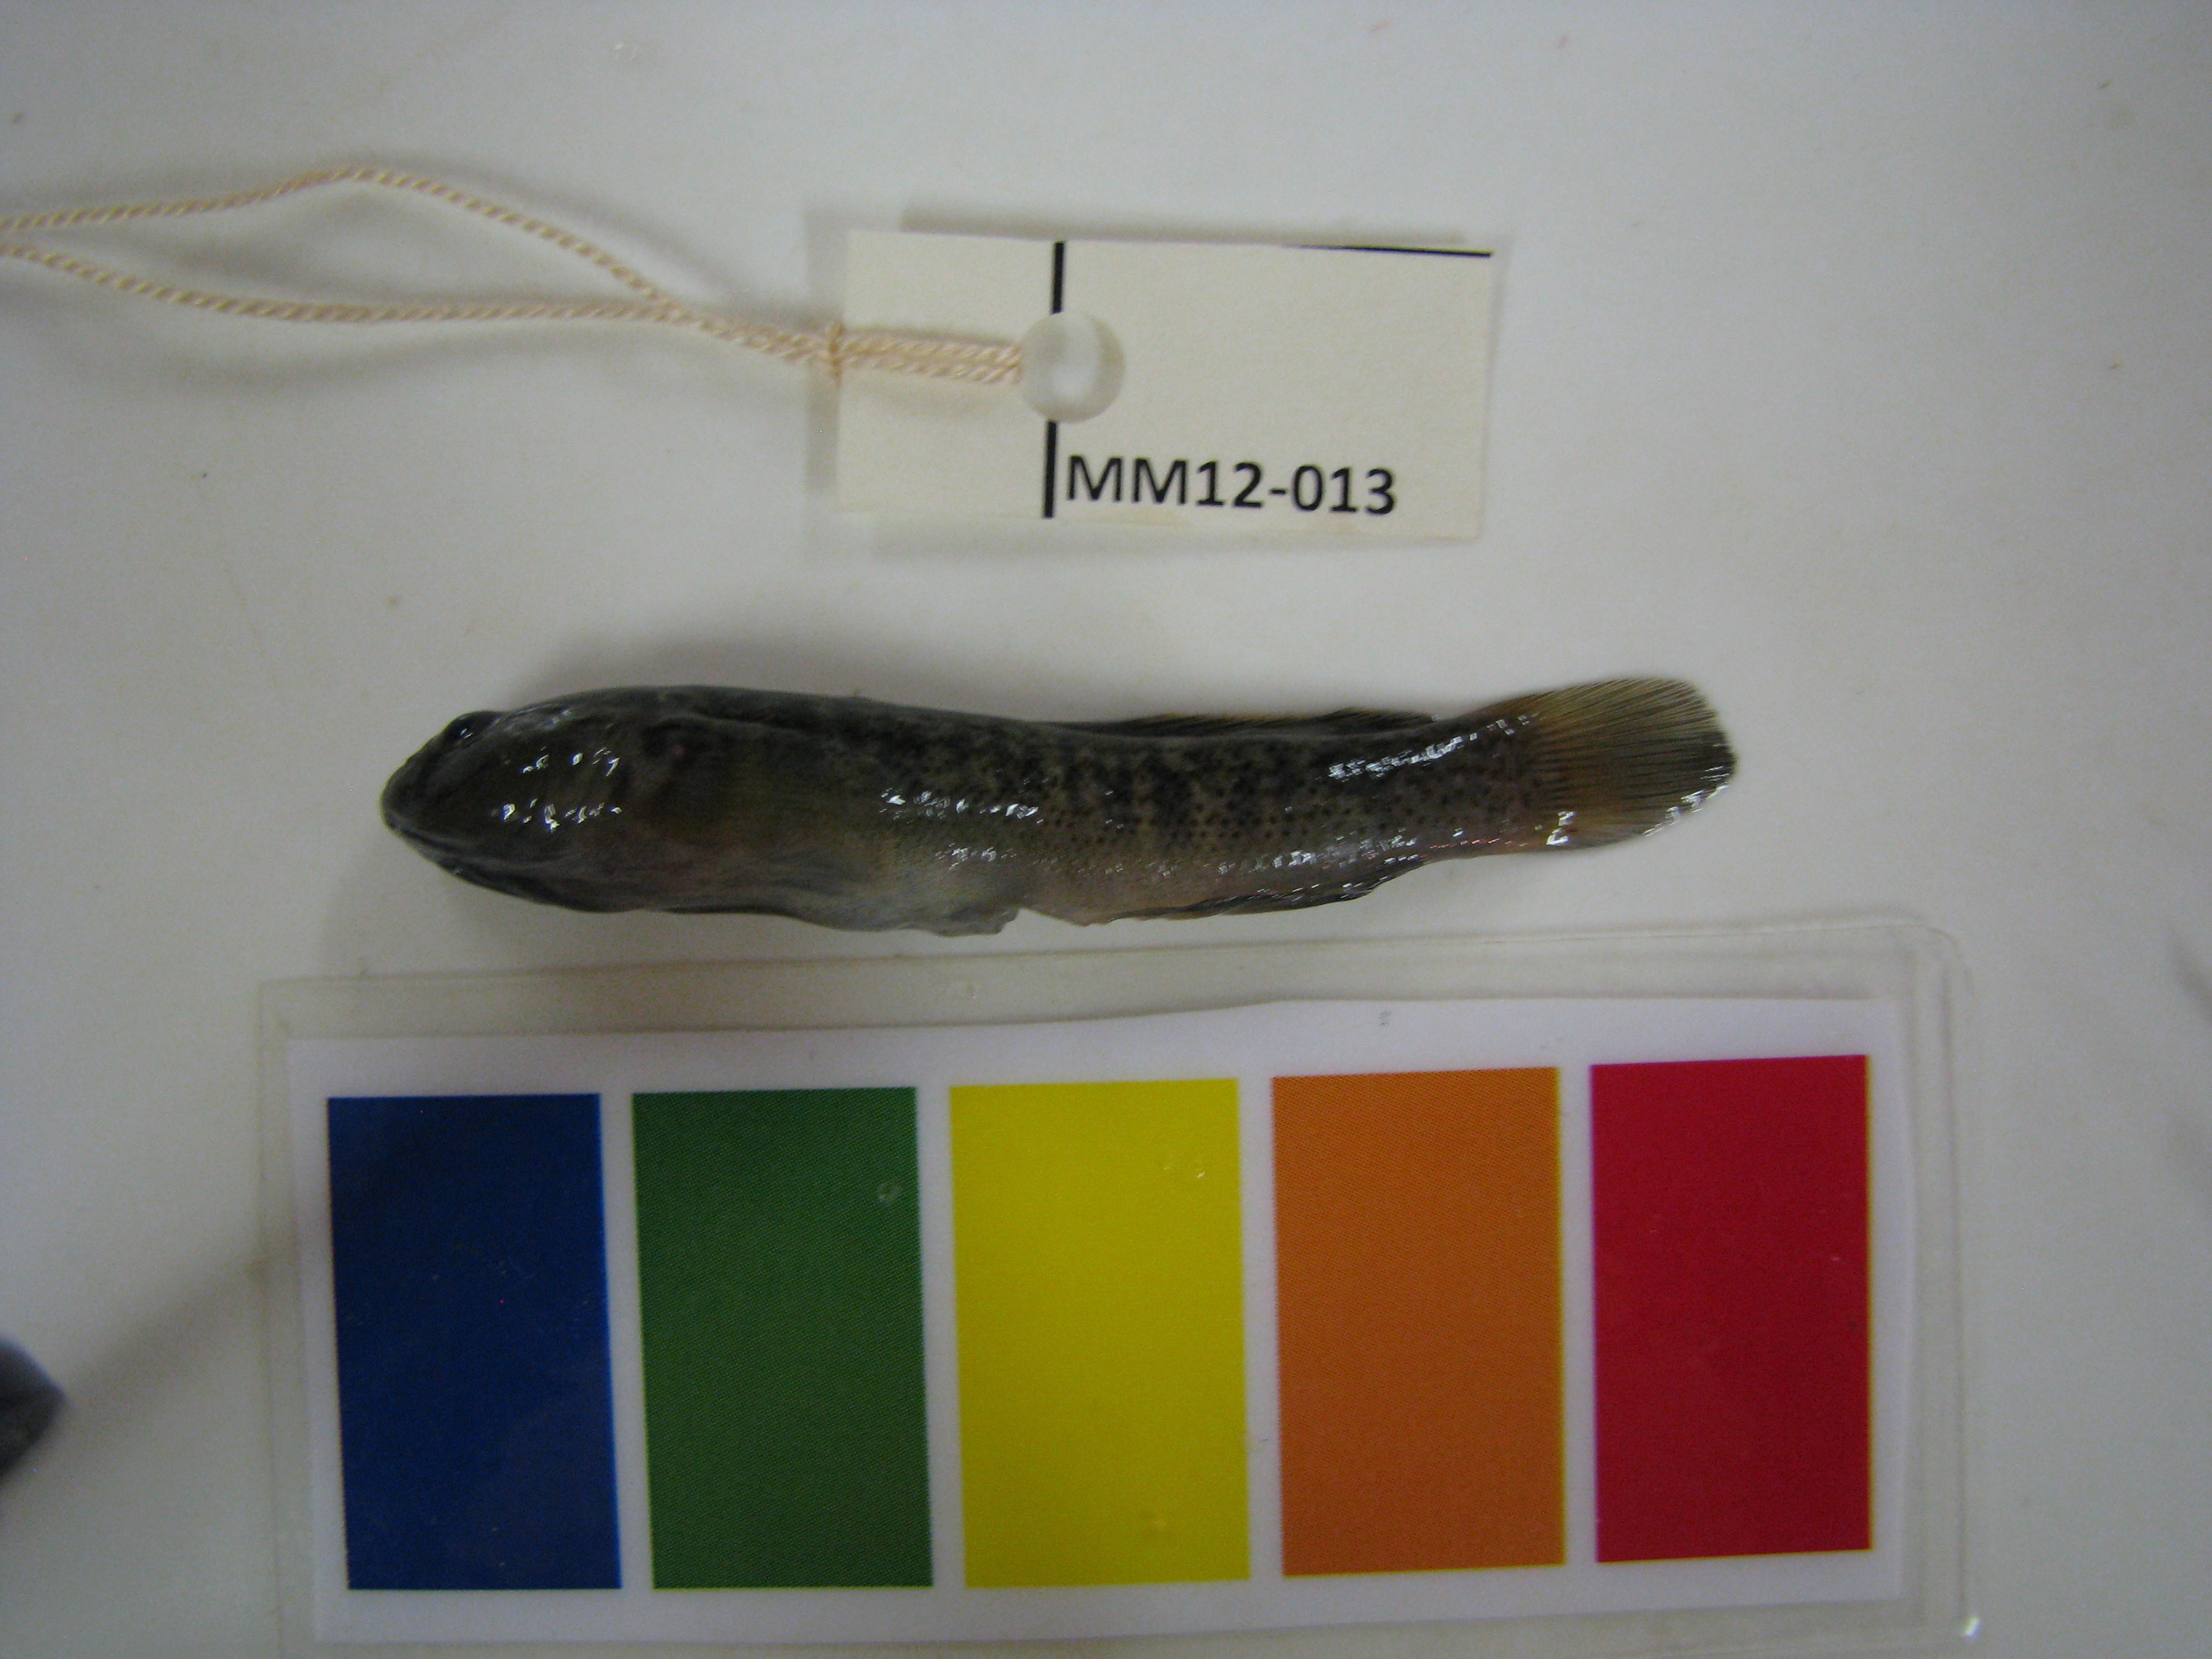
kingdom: Animalia
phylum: Chordata
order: Perciformes
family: Gobiidae
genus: Caffrogobius
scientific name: Caffrogobius caffer
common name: Banded goby
